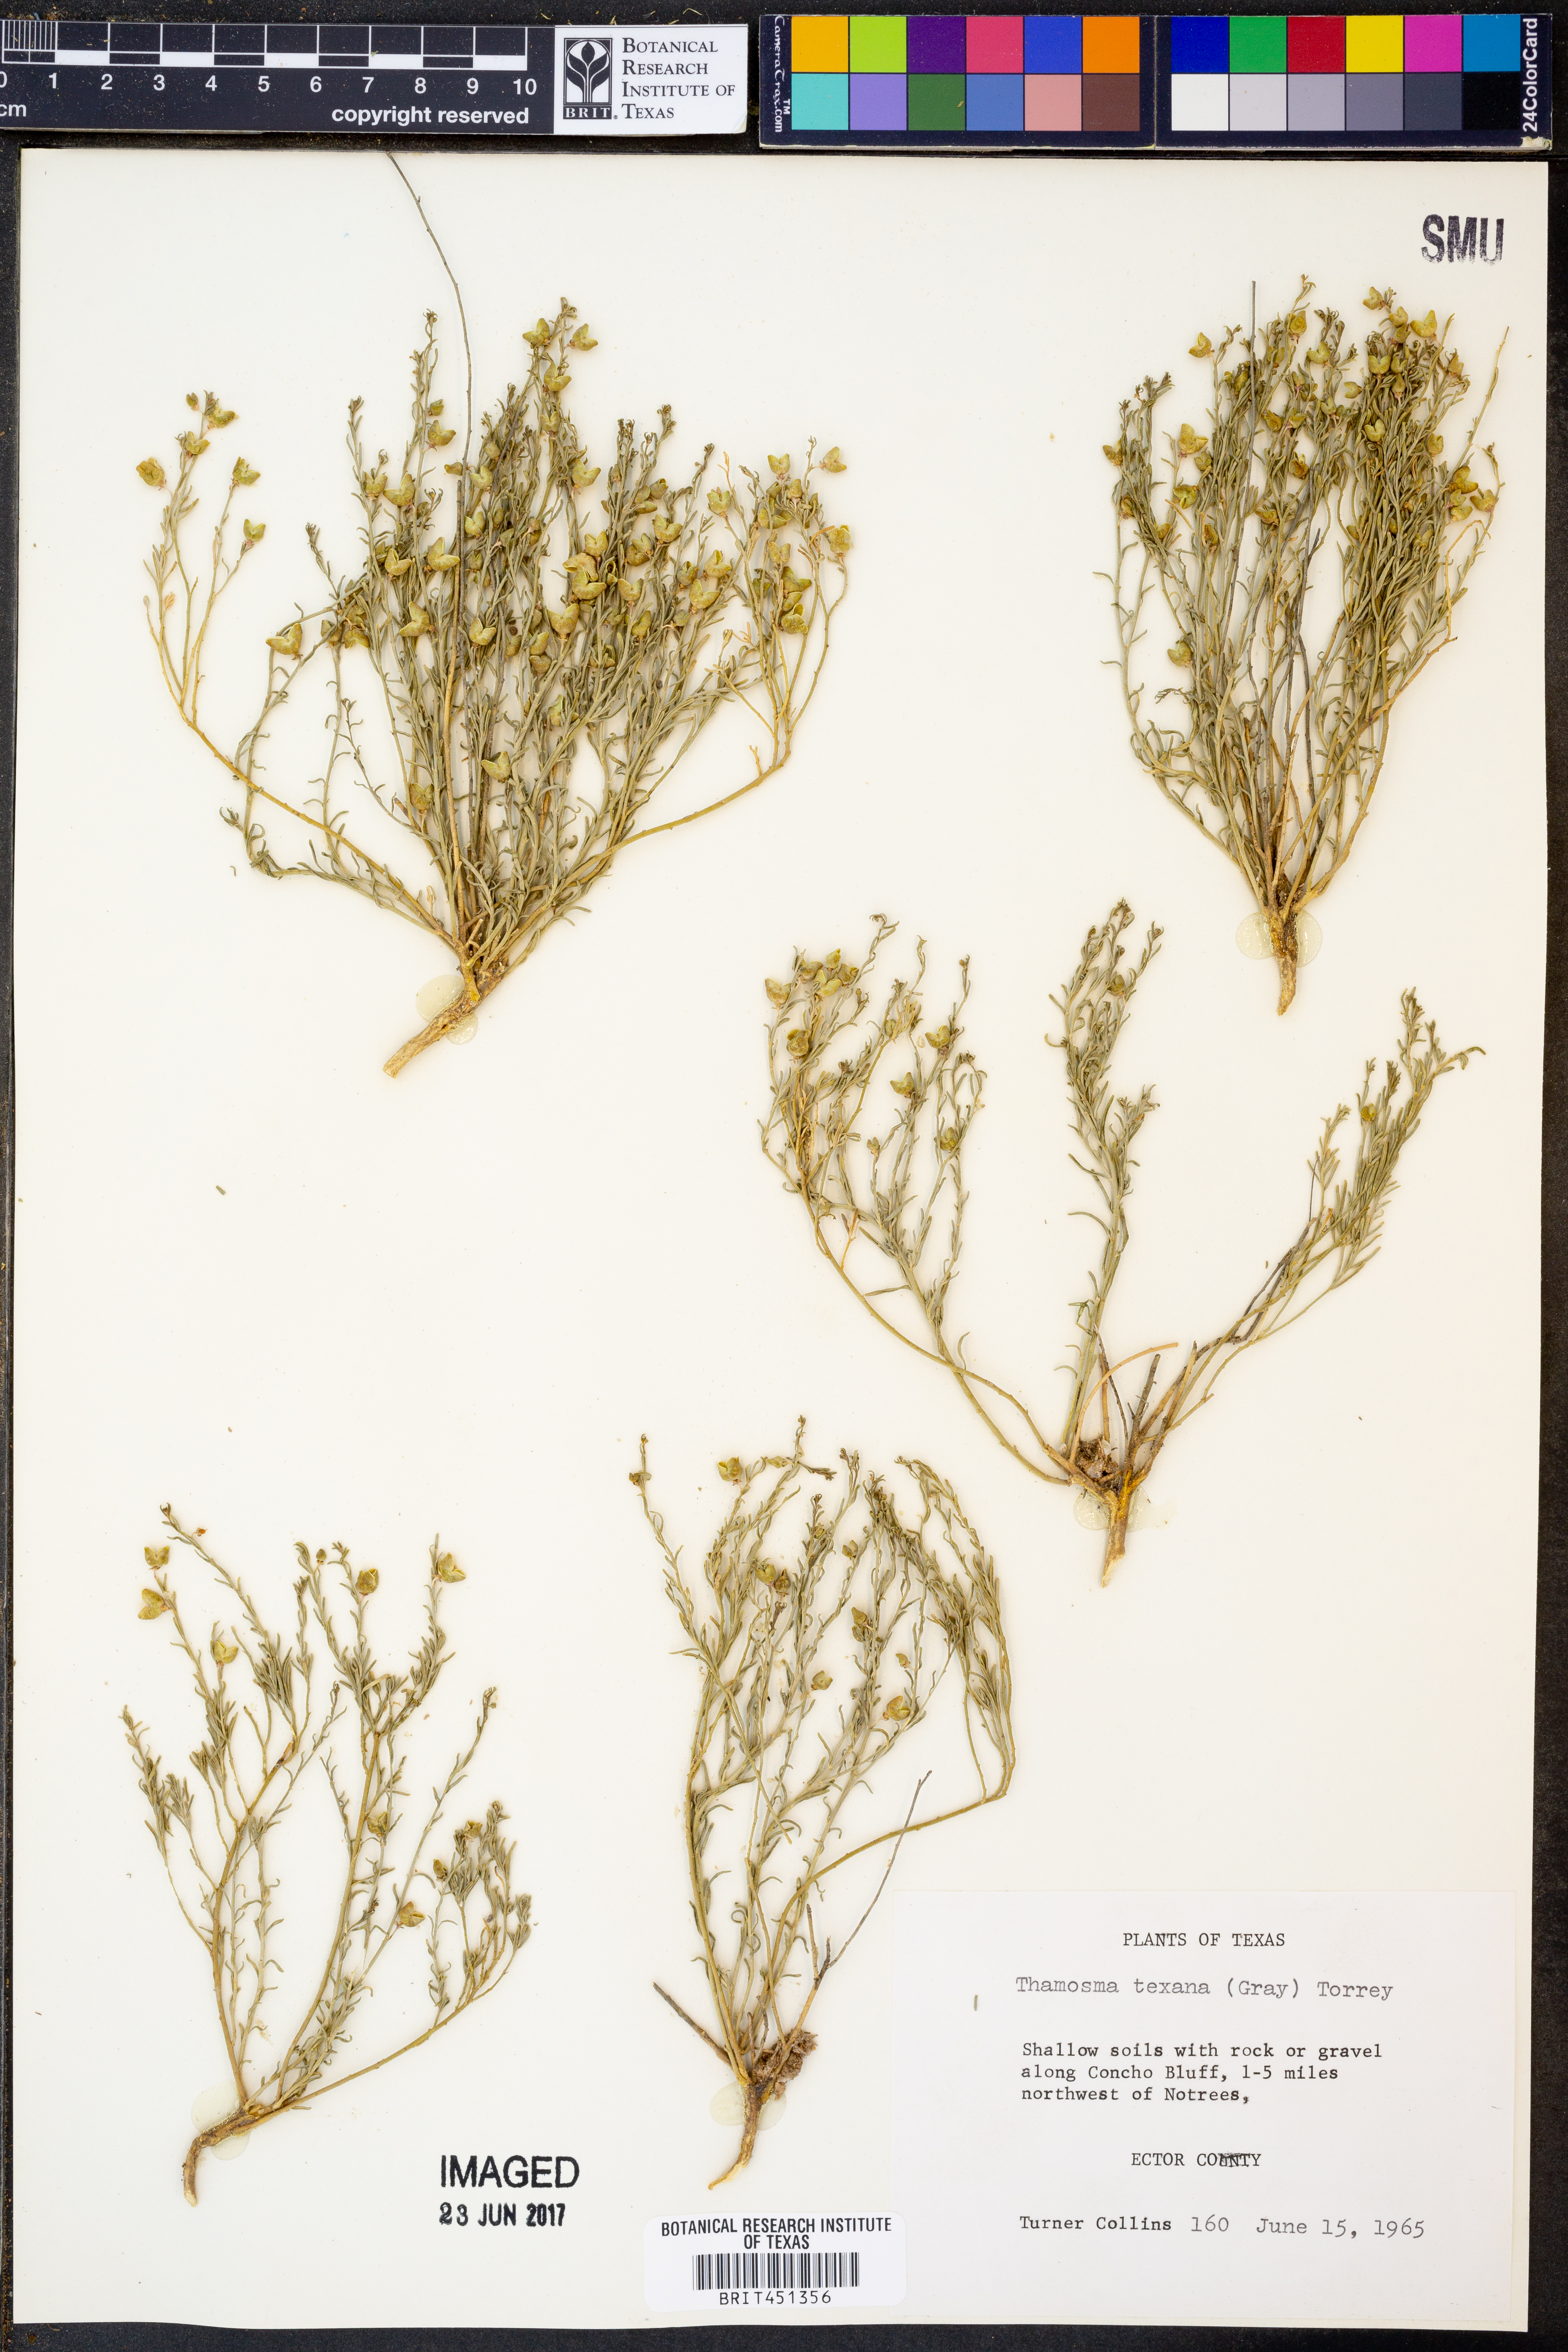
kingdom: Plantae
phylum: Tracheophyta
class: Magnoliopsida
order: Sapindales
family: Rutaceae
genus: Thamnosma
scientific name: Thamnosma texana
